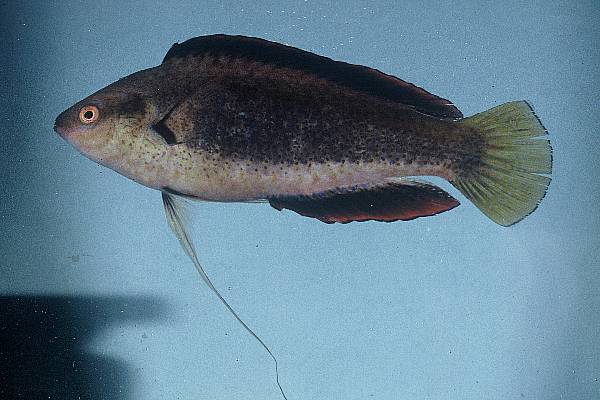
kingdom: Animalia
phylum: Chordata
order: Perciformes
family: Labridae
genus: Cirrhilabrus
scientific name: Cirrhilabrus punctatus
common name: Dotted wrasse
